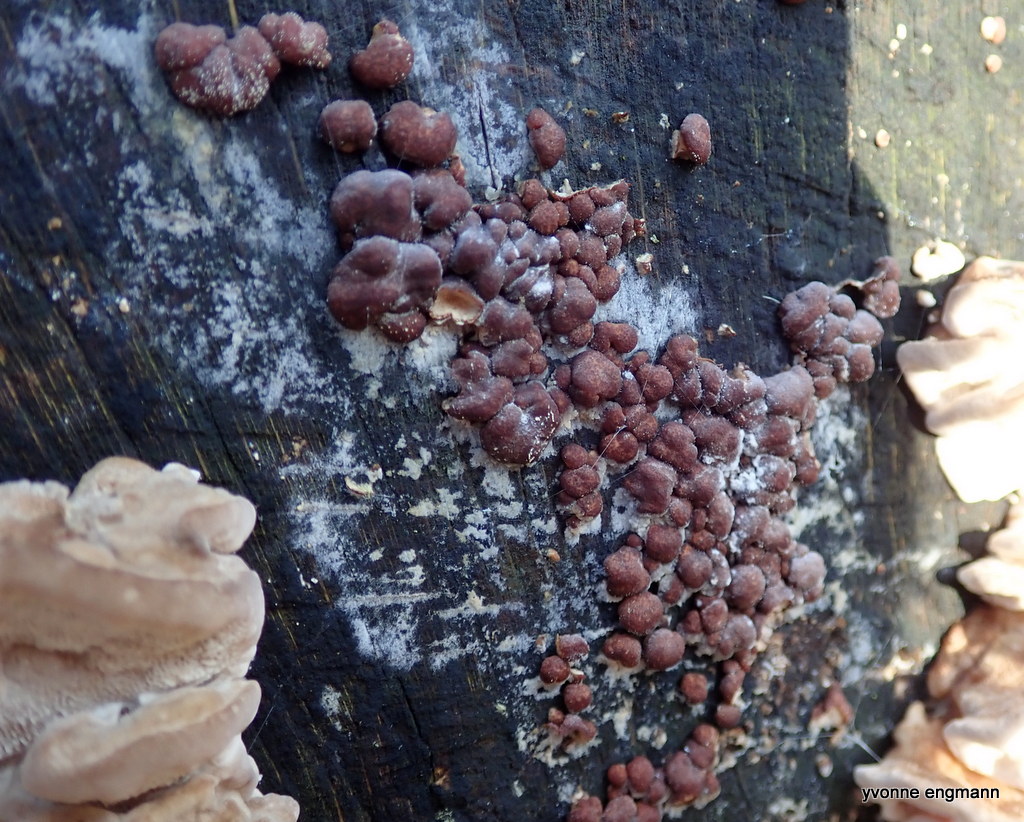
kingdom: Fungi
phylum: Ascomycota
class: Sordariomycetes
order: Xylariales
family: Hypoxylaceae
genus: Hypoxylon
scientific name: Hypoxylon fragiforme
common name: kuljordbær
